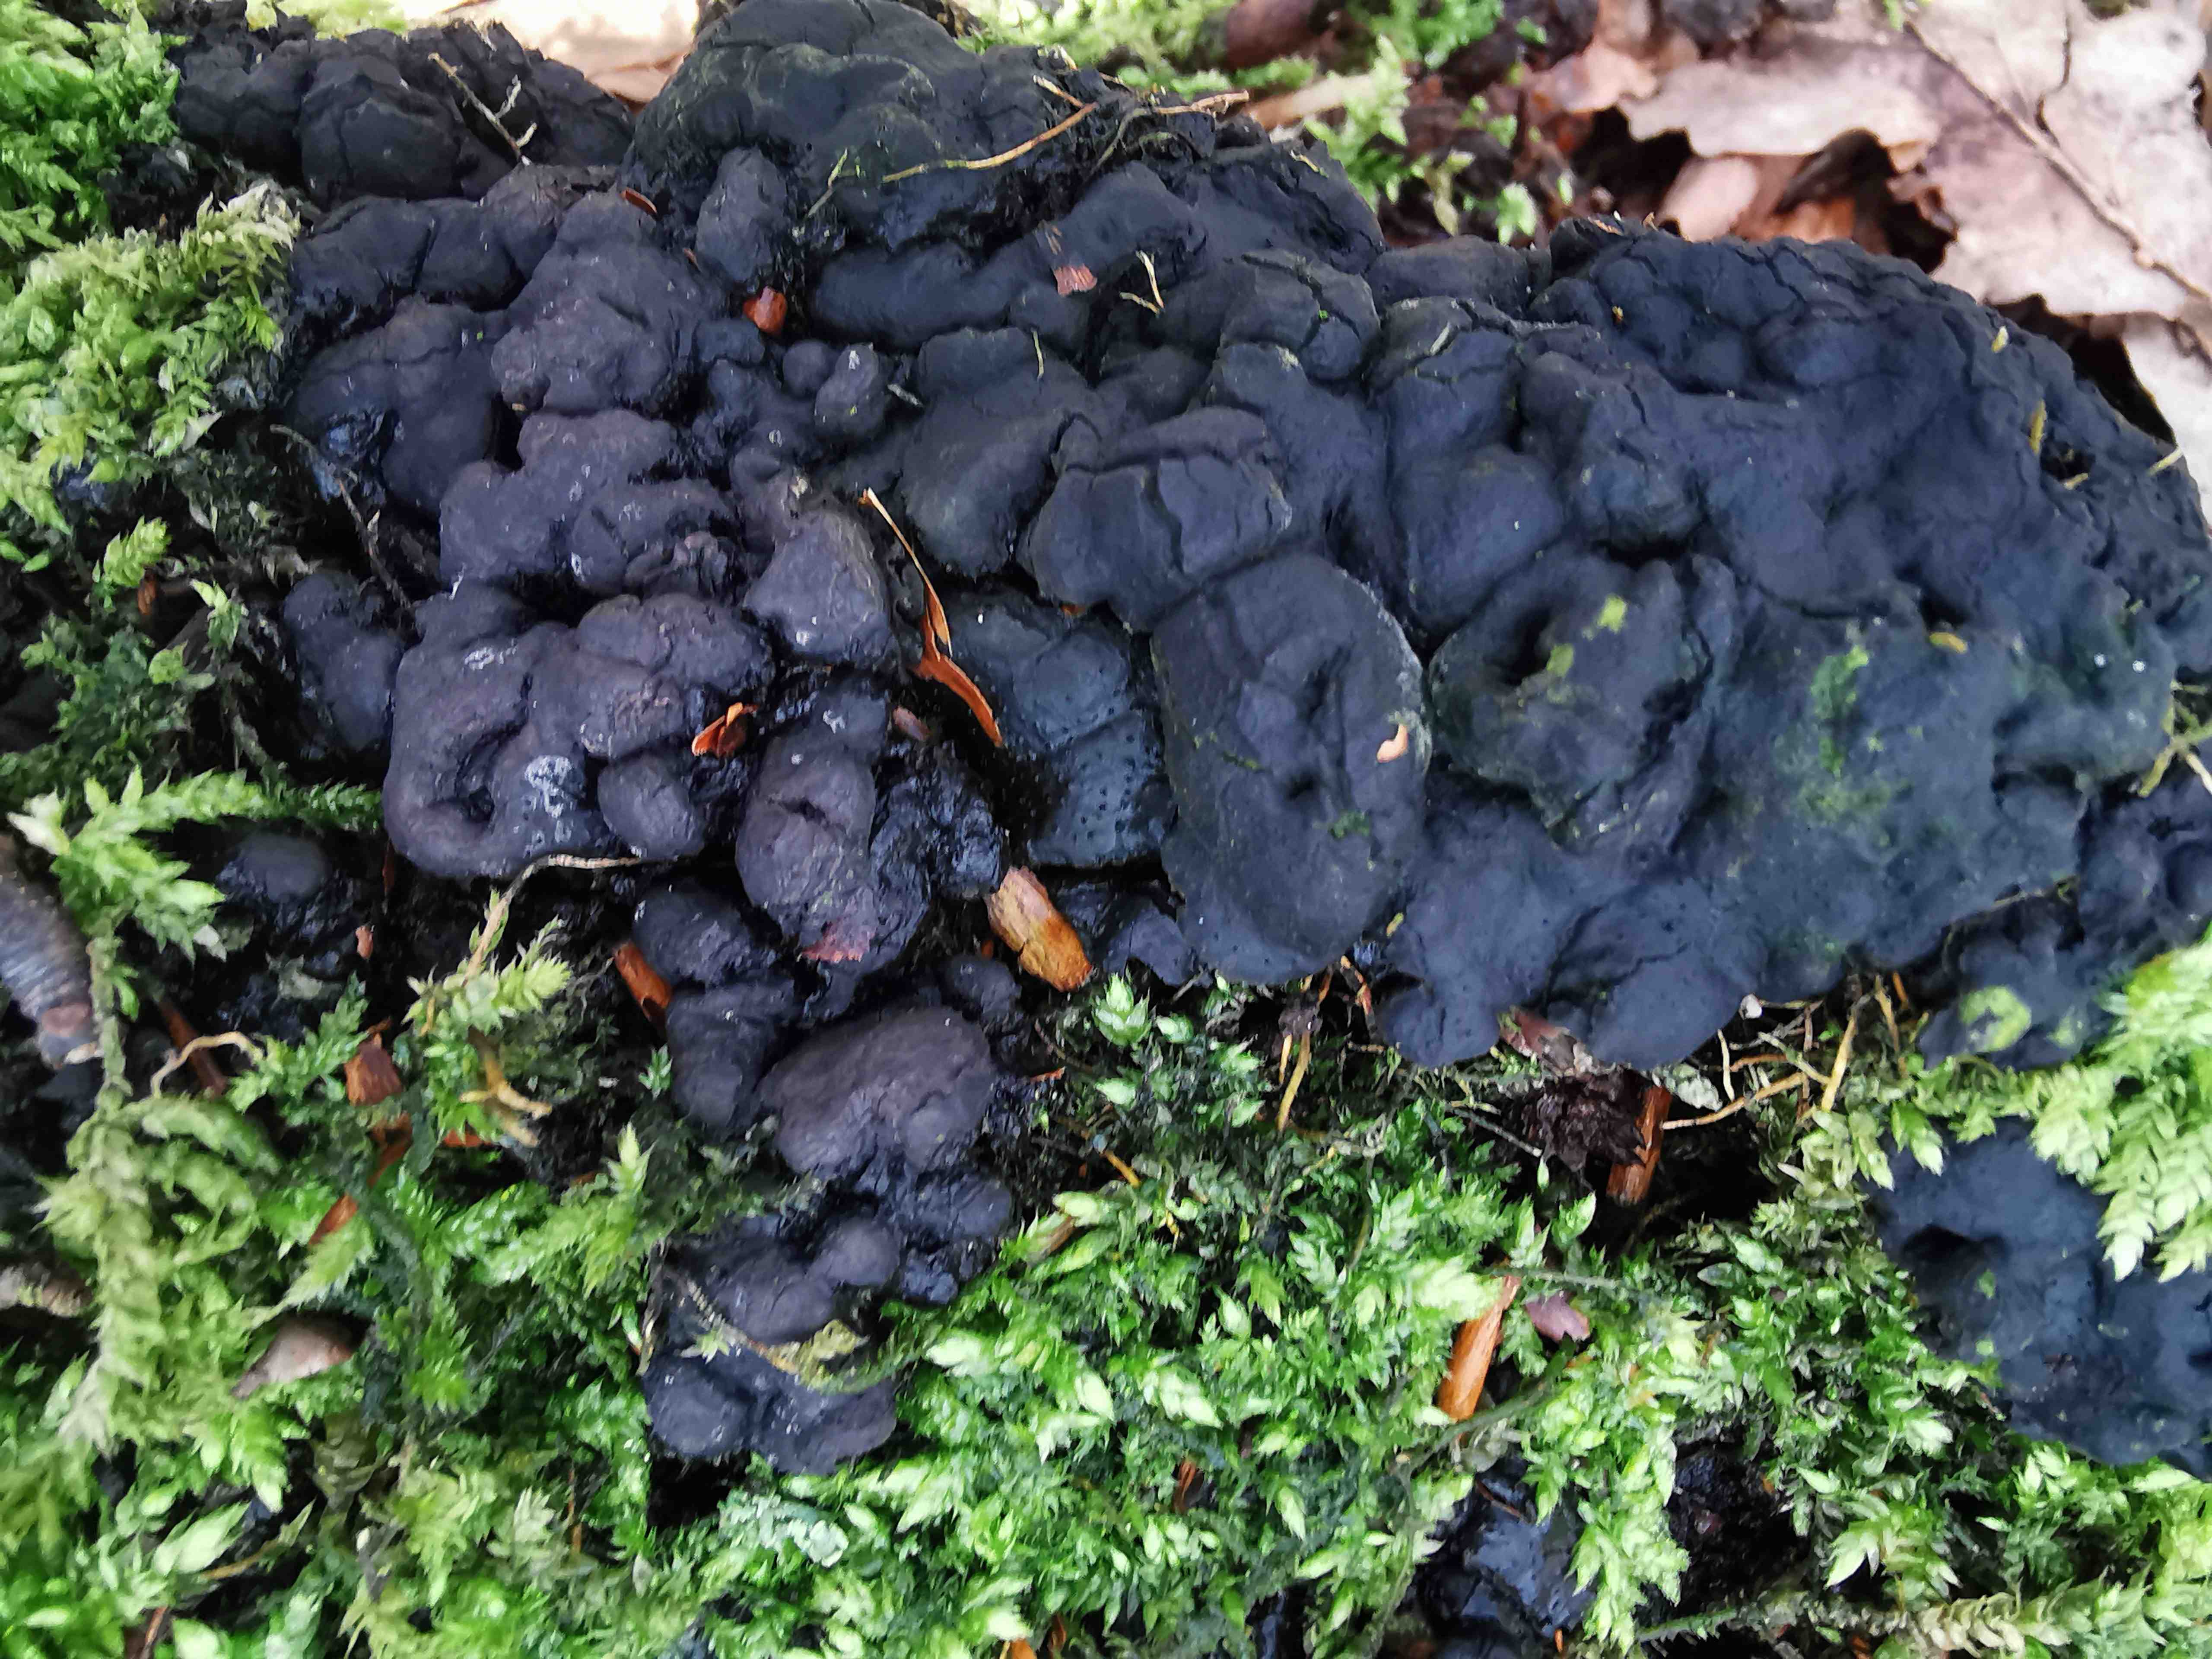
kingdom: Fungi
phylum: Ascomycota
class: Sordariomycetes
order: Xylariales
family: Xylariaceae
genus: Kretzschmaria
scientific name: Kretzschmaria deusta
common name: stor kulsvamp
